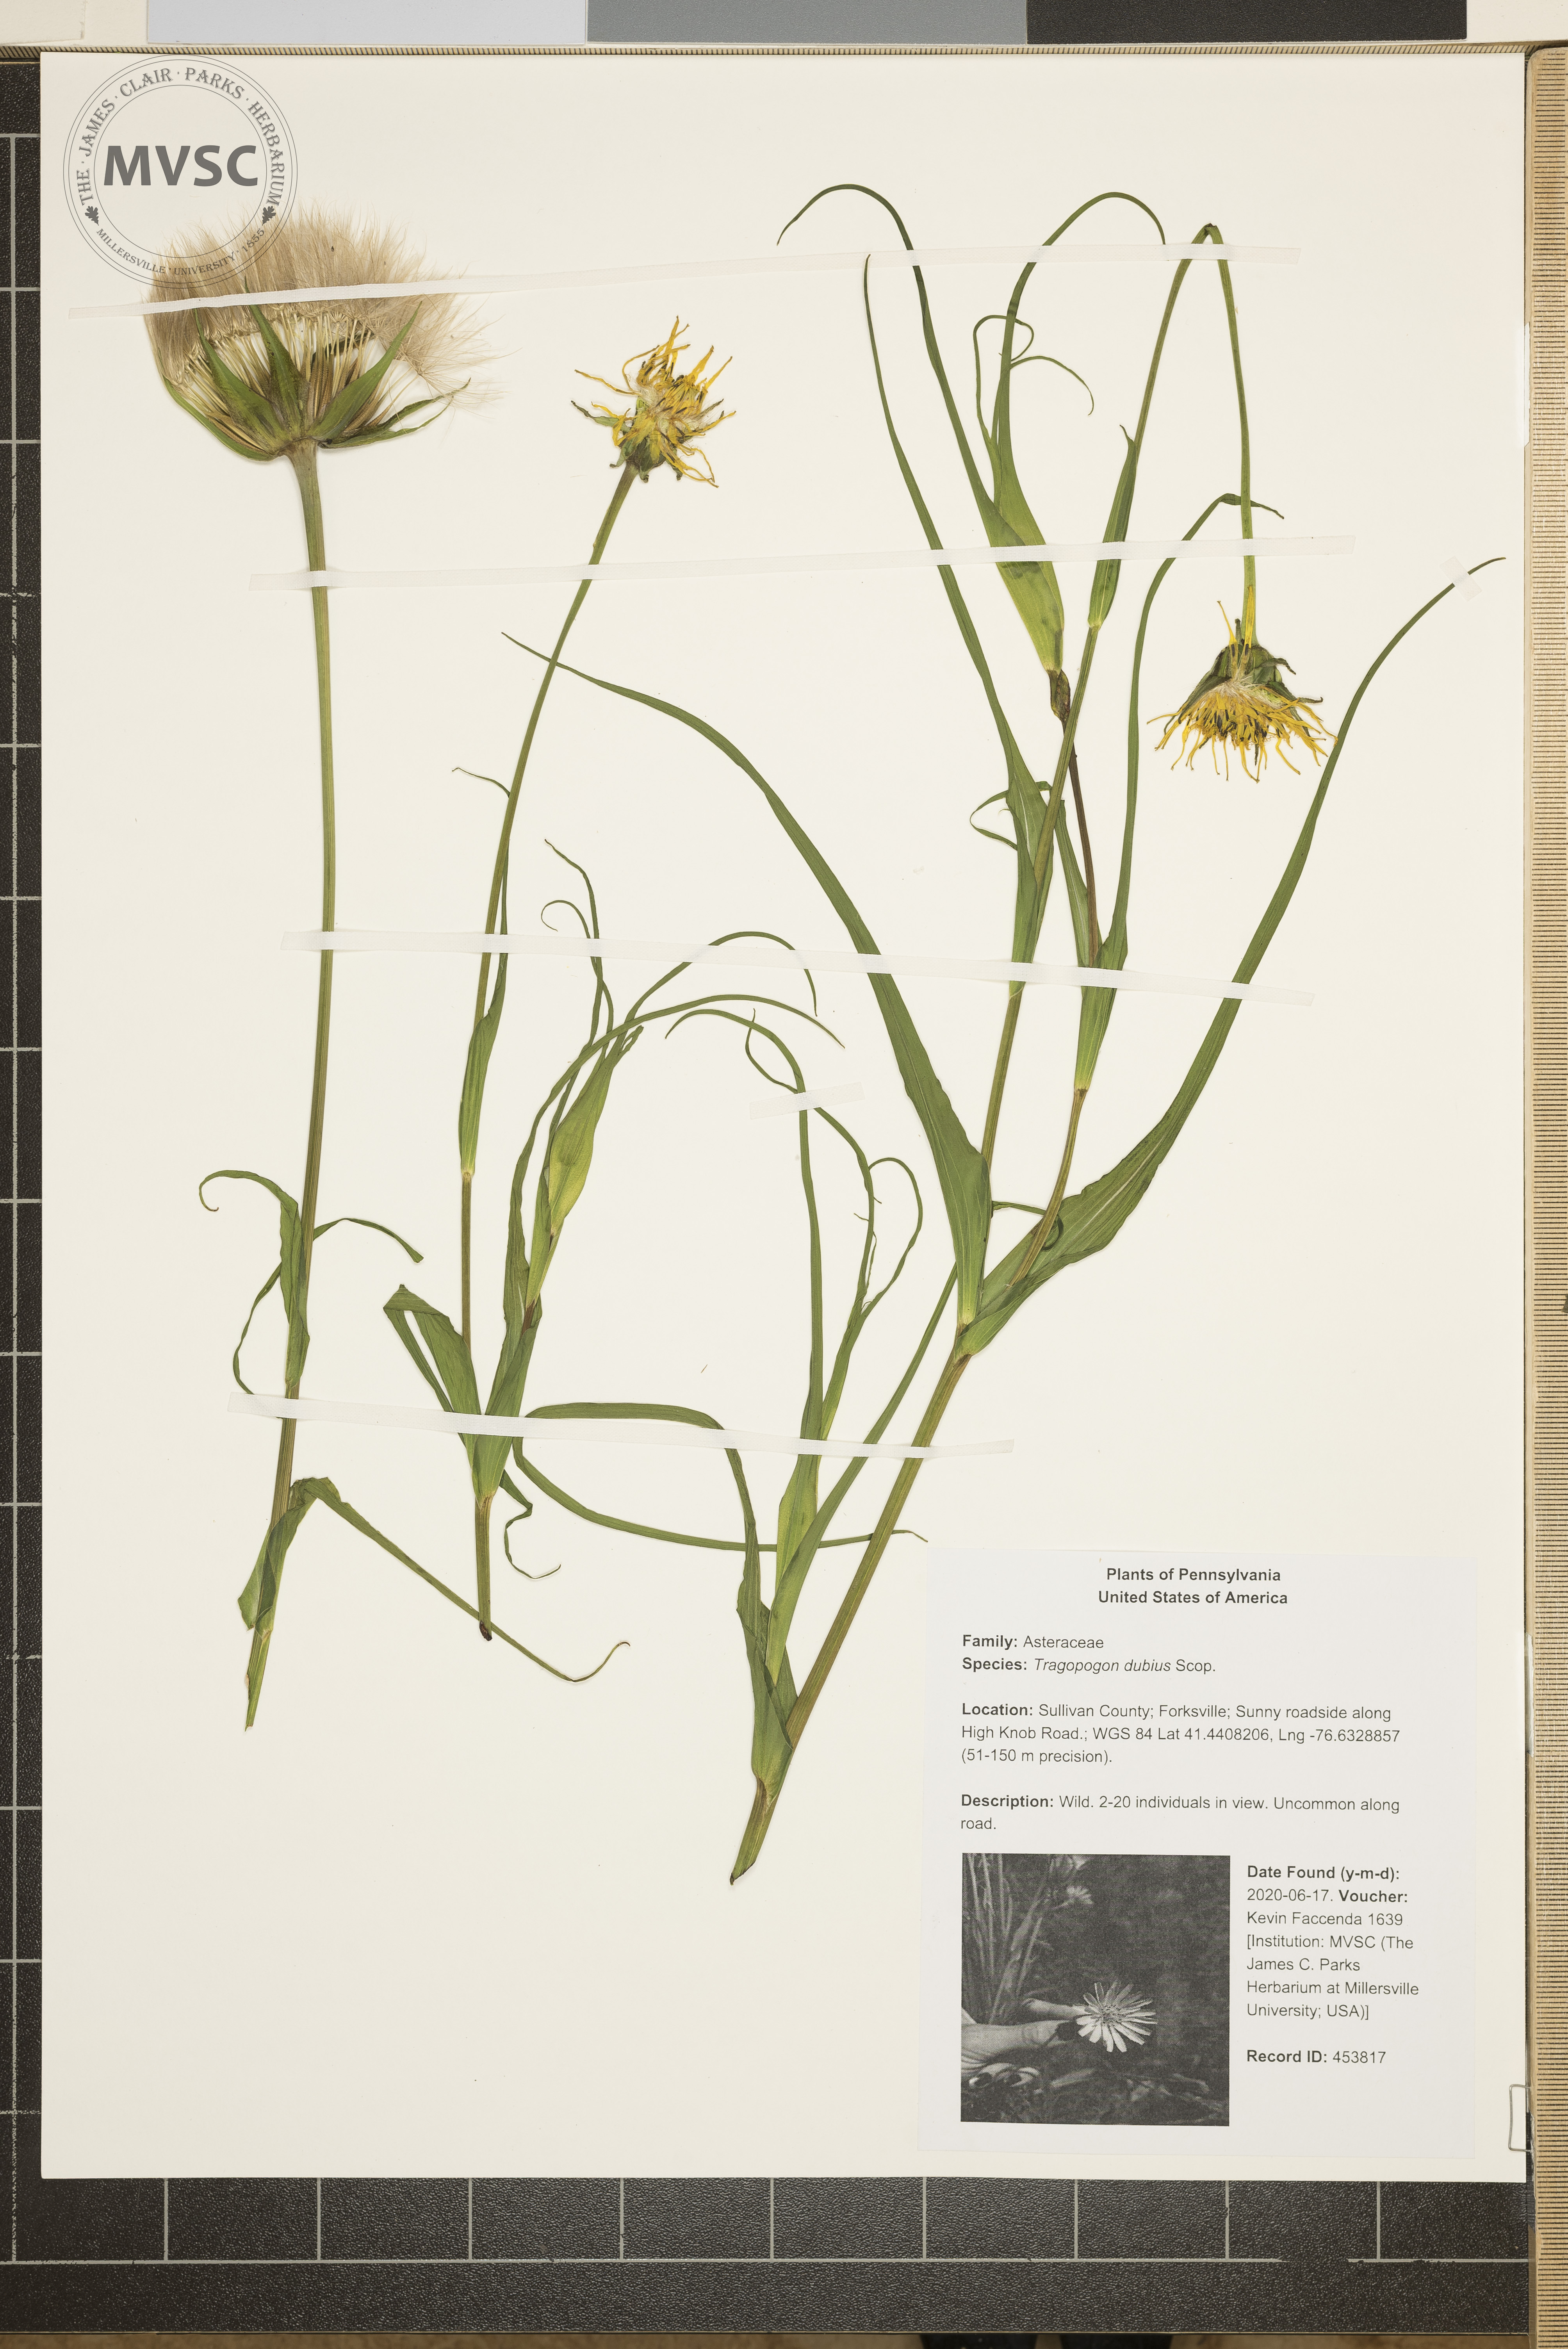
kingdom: Plantae
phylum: Tracheophyta
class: Magnoliopsida
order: Asterales
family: Asteraceae
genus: Tragopogon
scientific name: Tragopogon dubius
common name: Yellow salsify
